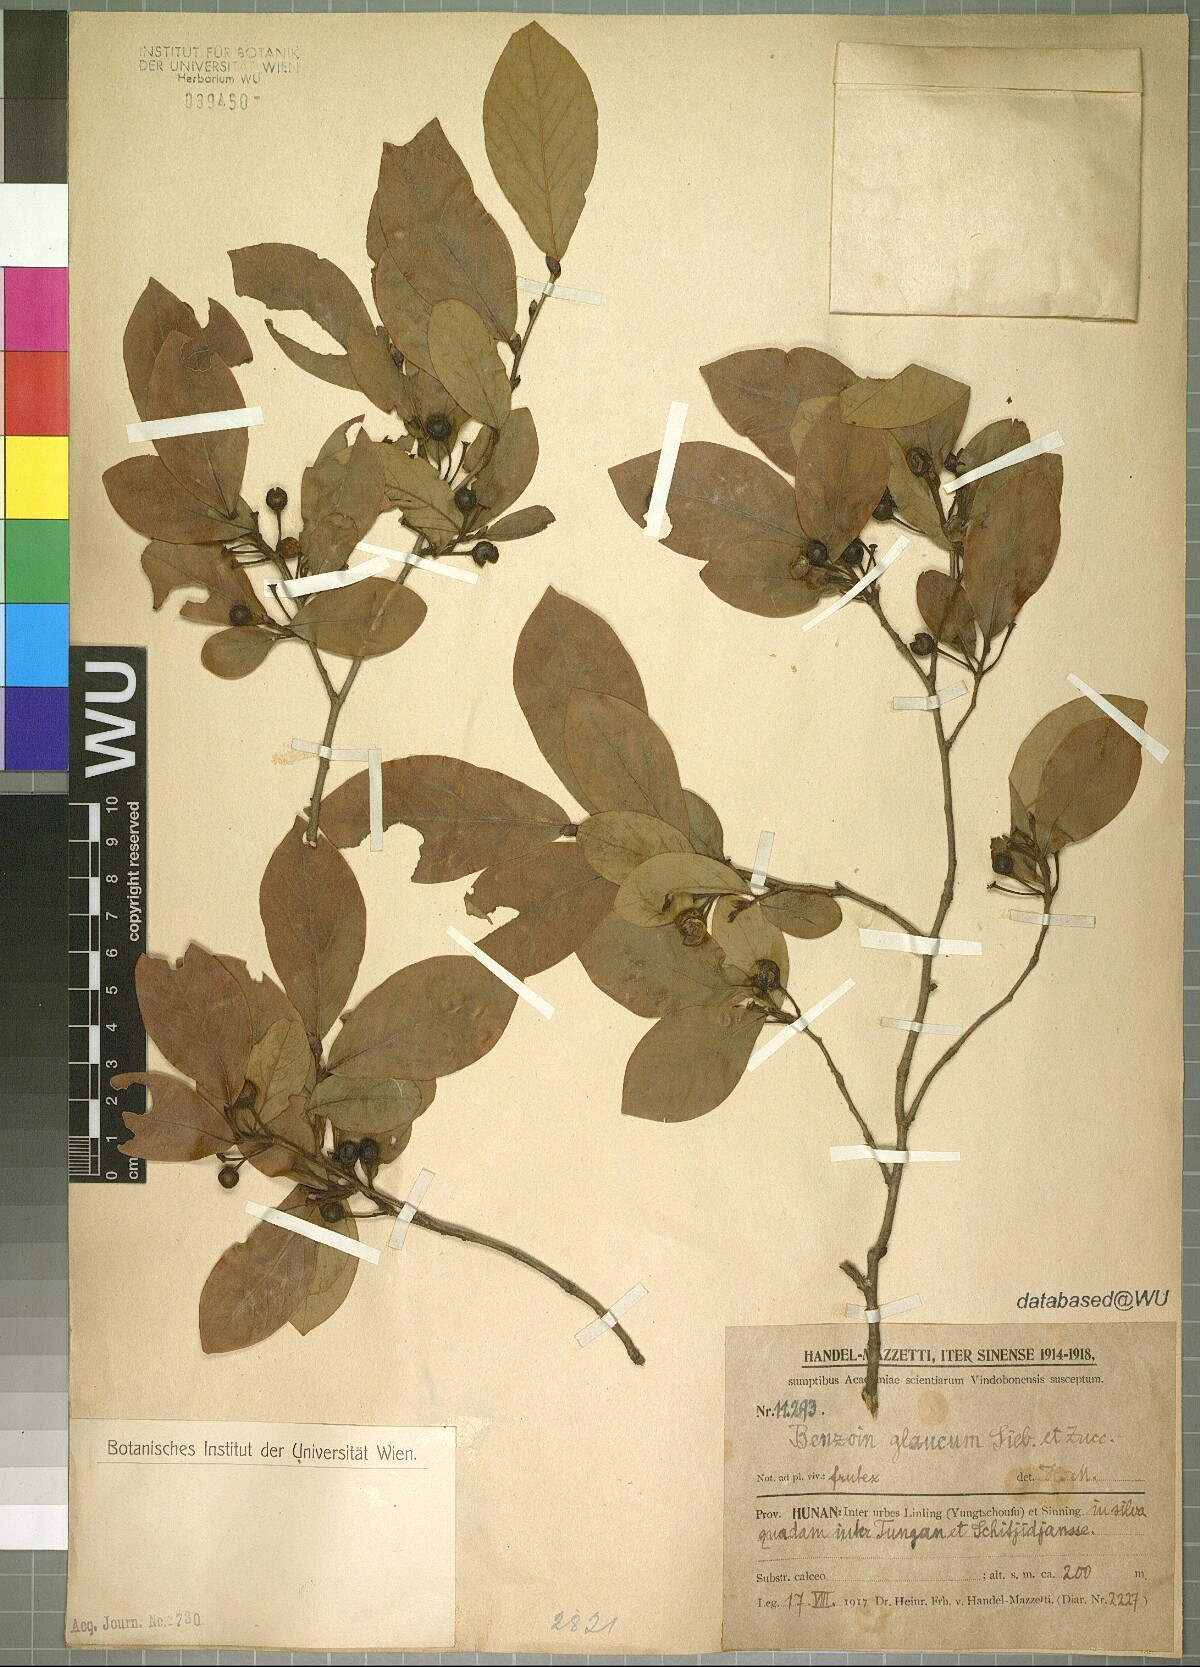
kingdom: Plantae
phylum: Tracheophyta
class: Magnoliopsida
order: Laurales
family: Lauraceae
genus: Lindera
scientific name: Lindera glauca
